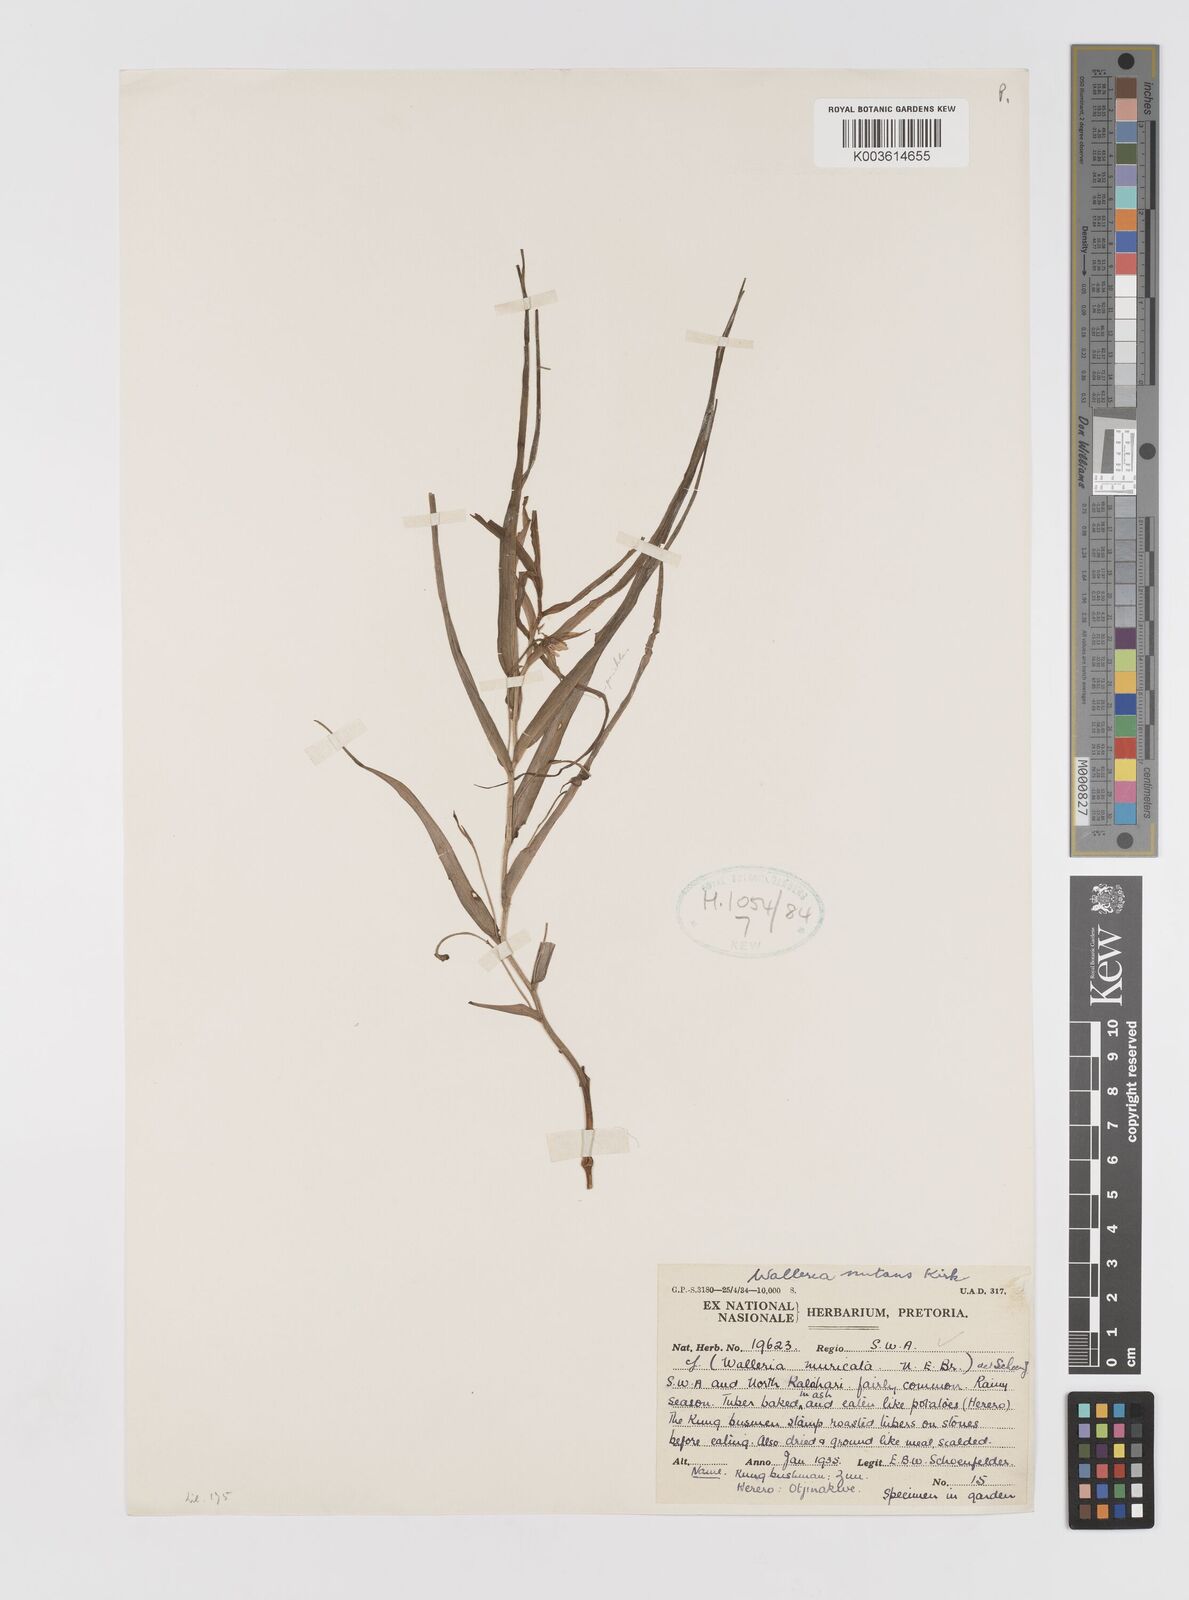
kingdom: Plantae
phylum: Tracheophyta
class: Liliopsida
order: Asparagales
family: Tecophilaeaceae
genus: Walleria
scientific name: Walleria nutans
